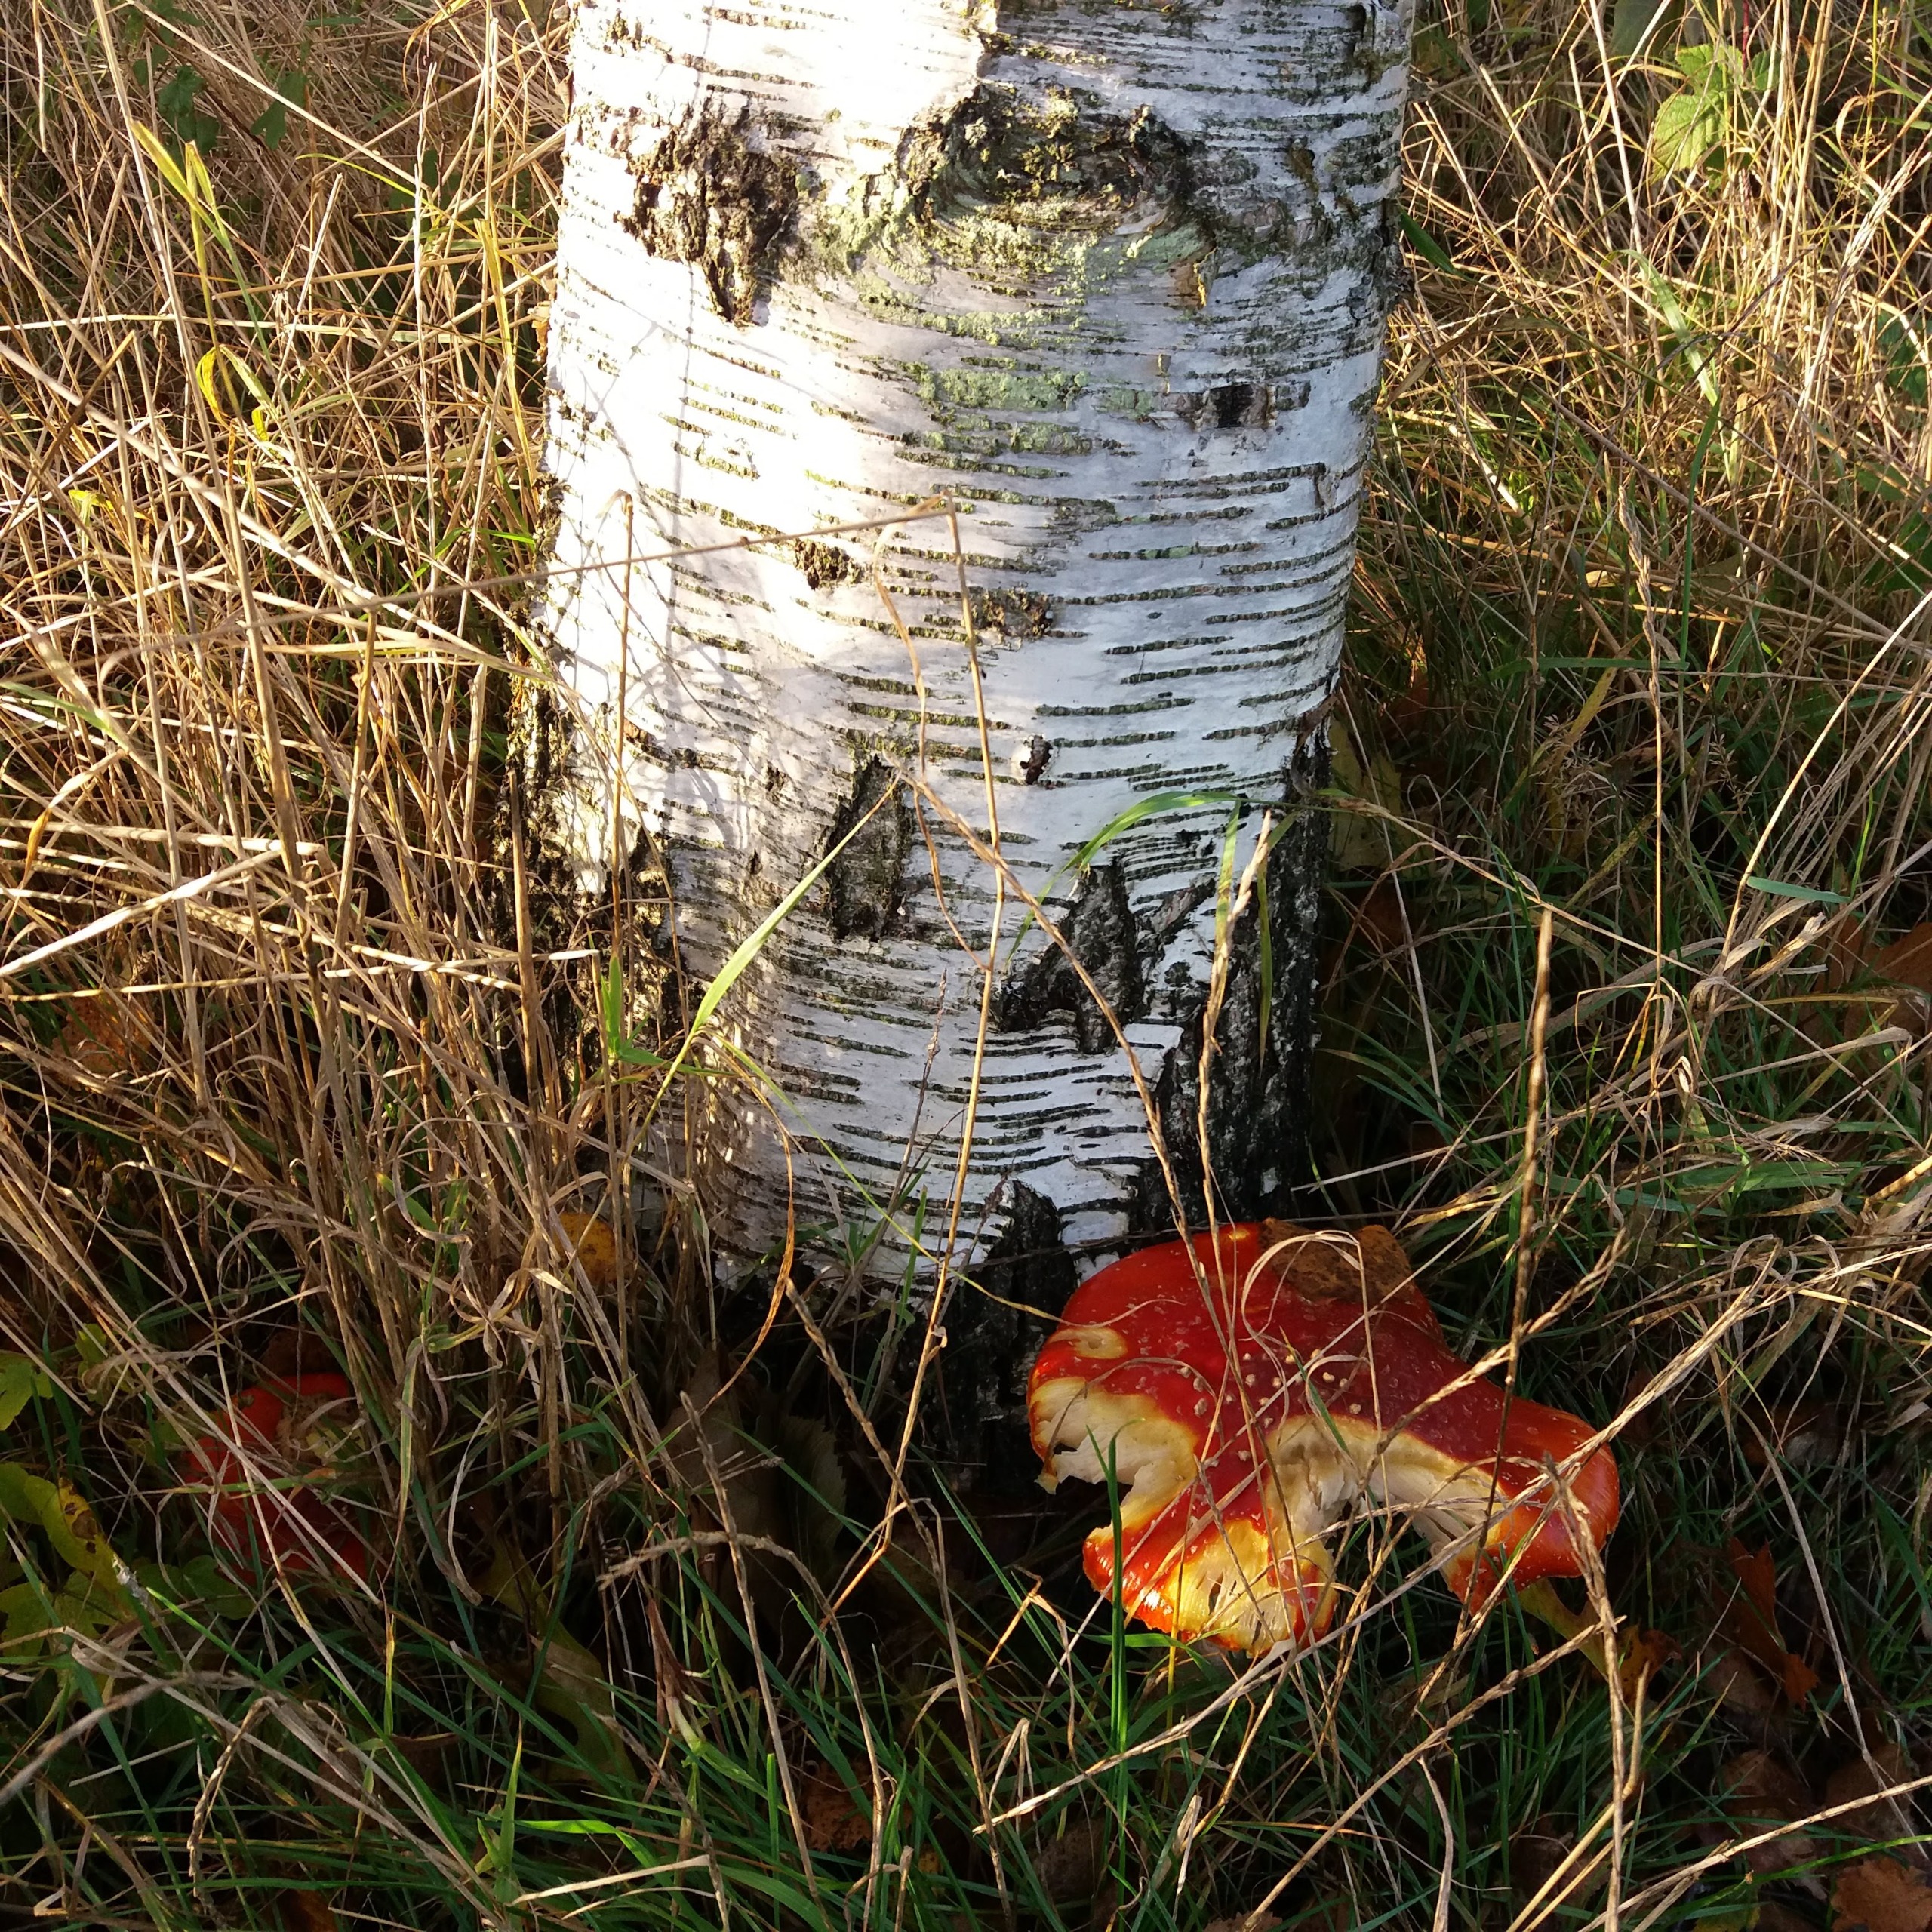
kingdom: Fungi
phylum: Basidiomycota
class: Agaricomycetes
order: Agaricales
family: Amanitaceae
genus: Amanita
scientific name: Amanita muscaria
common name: Rød fluesvamp
